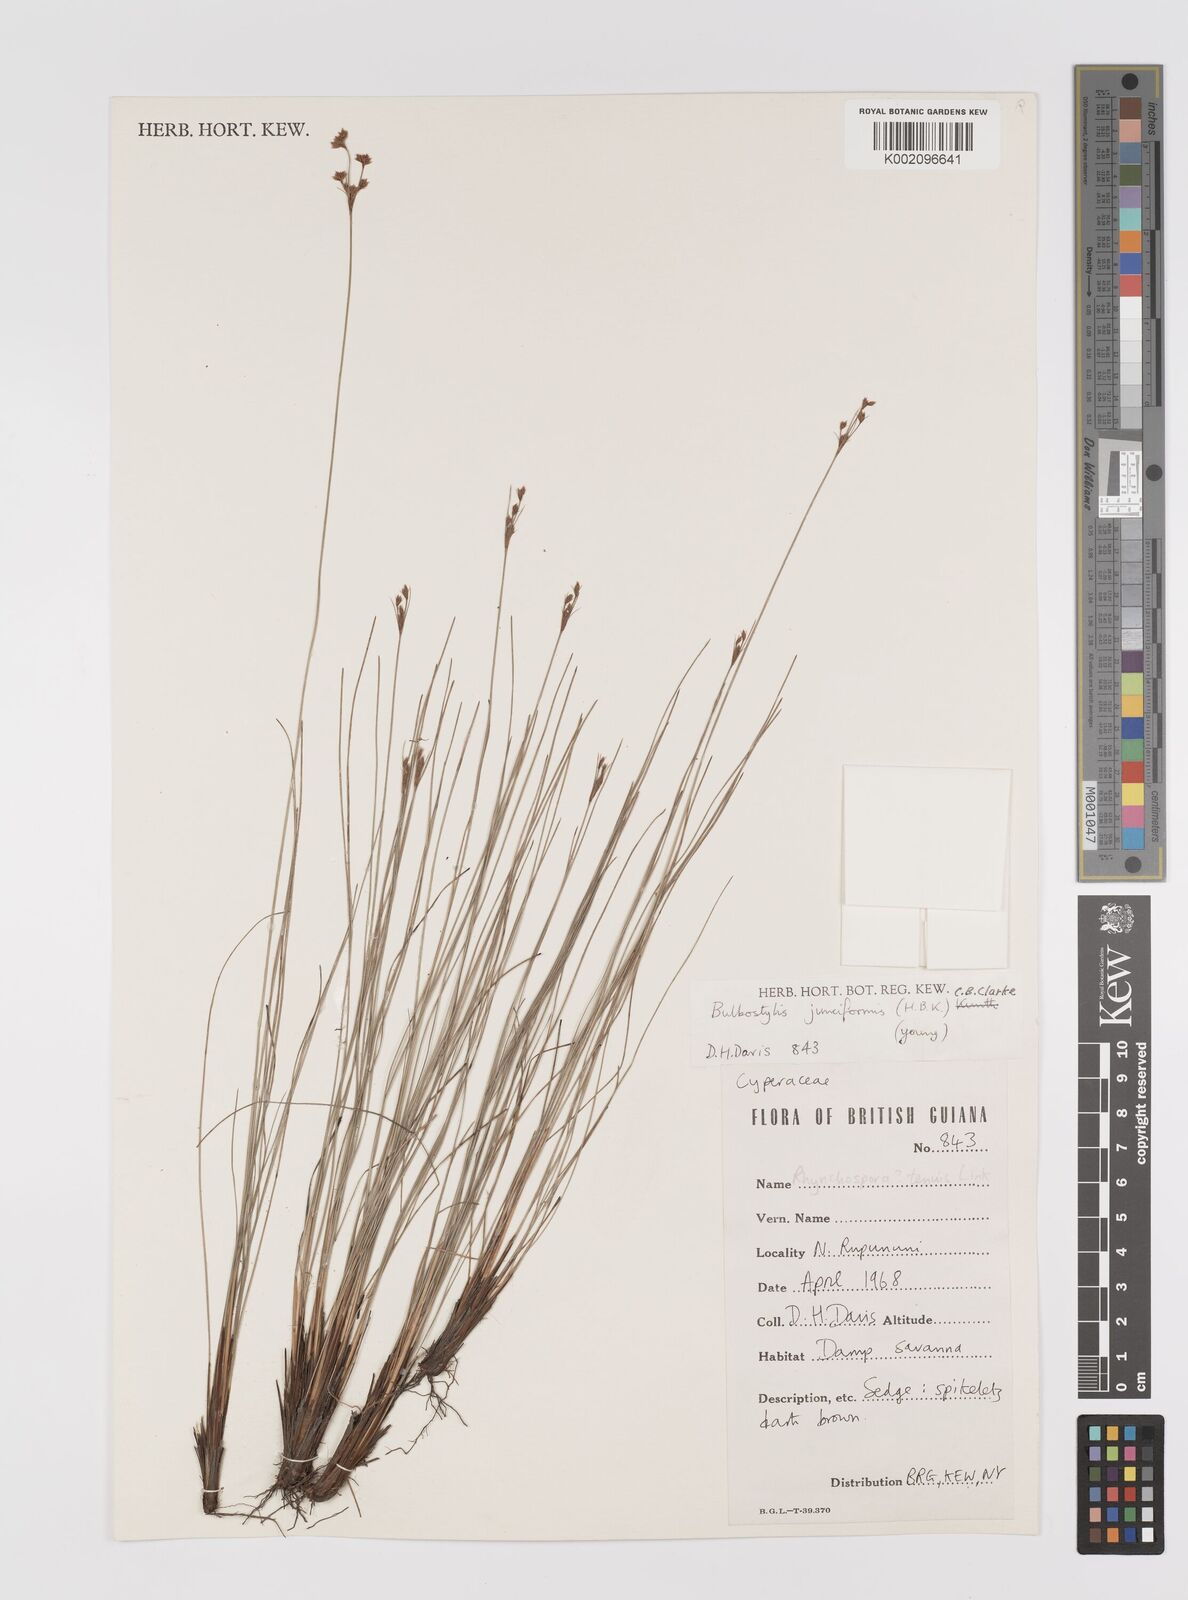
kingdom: Plantae
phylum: Tracheophyta
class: Liliopsida
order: Poales
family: Cyperaceae
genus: Bulbostylis
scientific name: Bulbostylis junciformis
